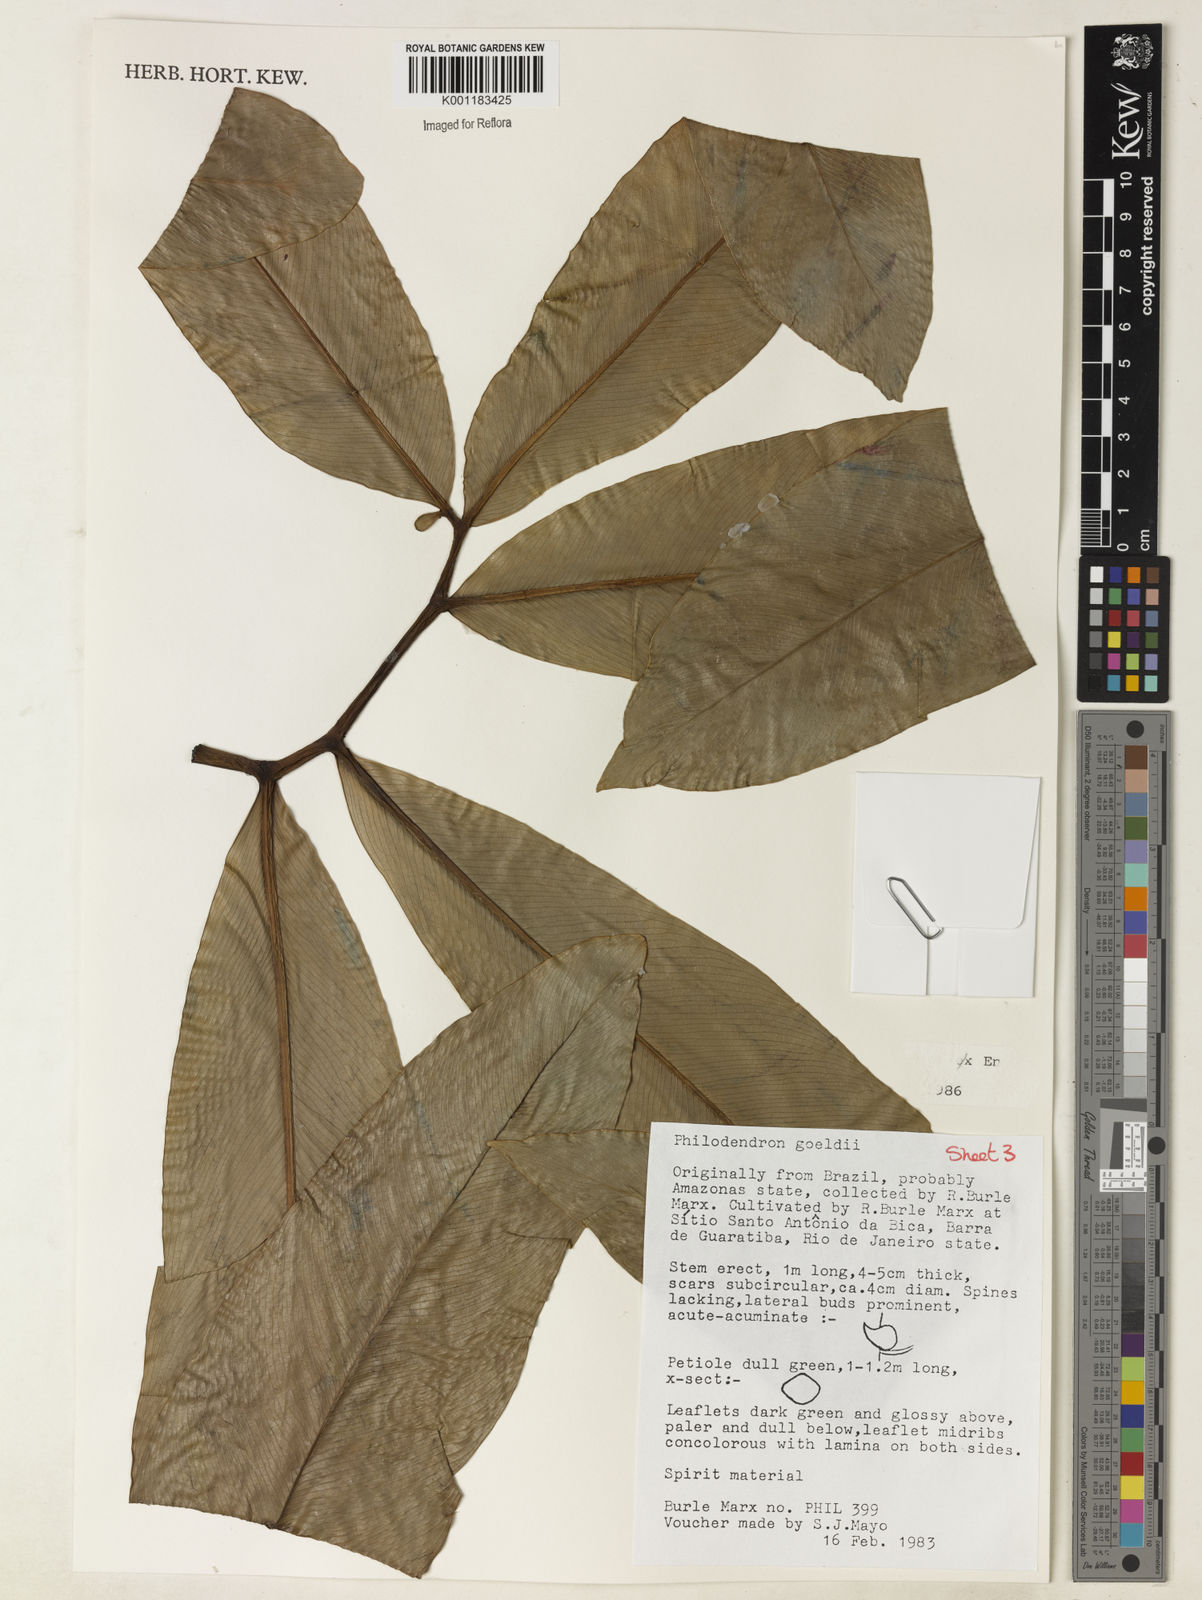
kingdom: Plantae
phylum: Tracheophyta
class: Liliopsida
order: Alismatales
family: Araceae
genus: Thaumatophyllum
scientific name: Thaumatophyllum spruceanum
